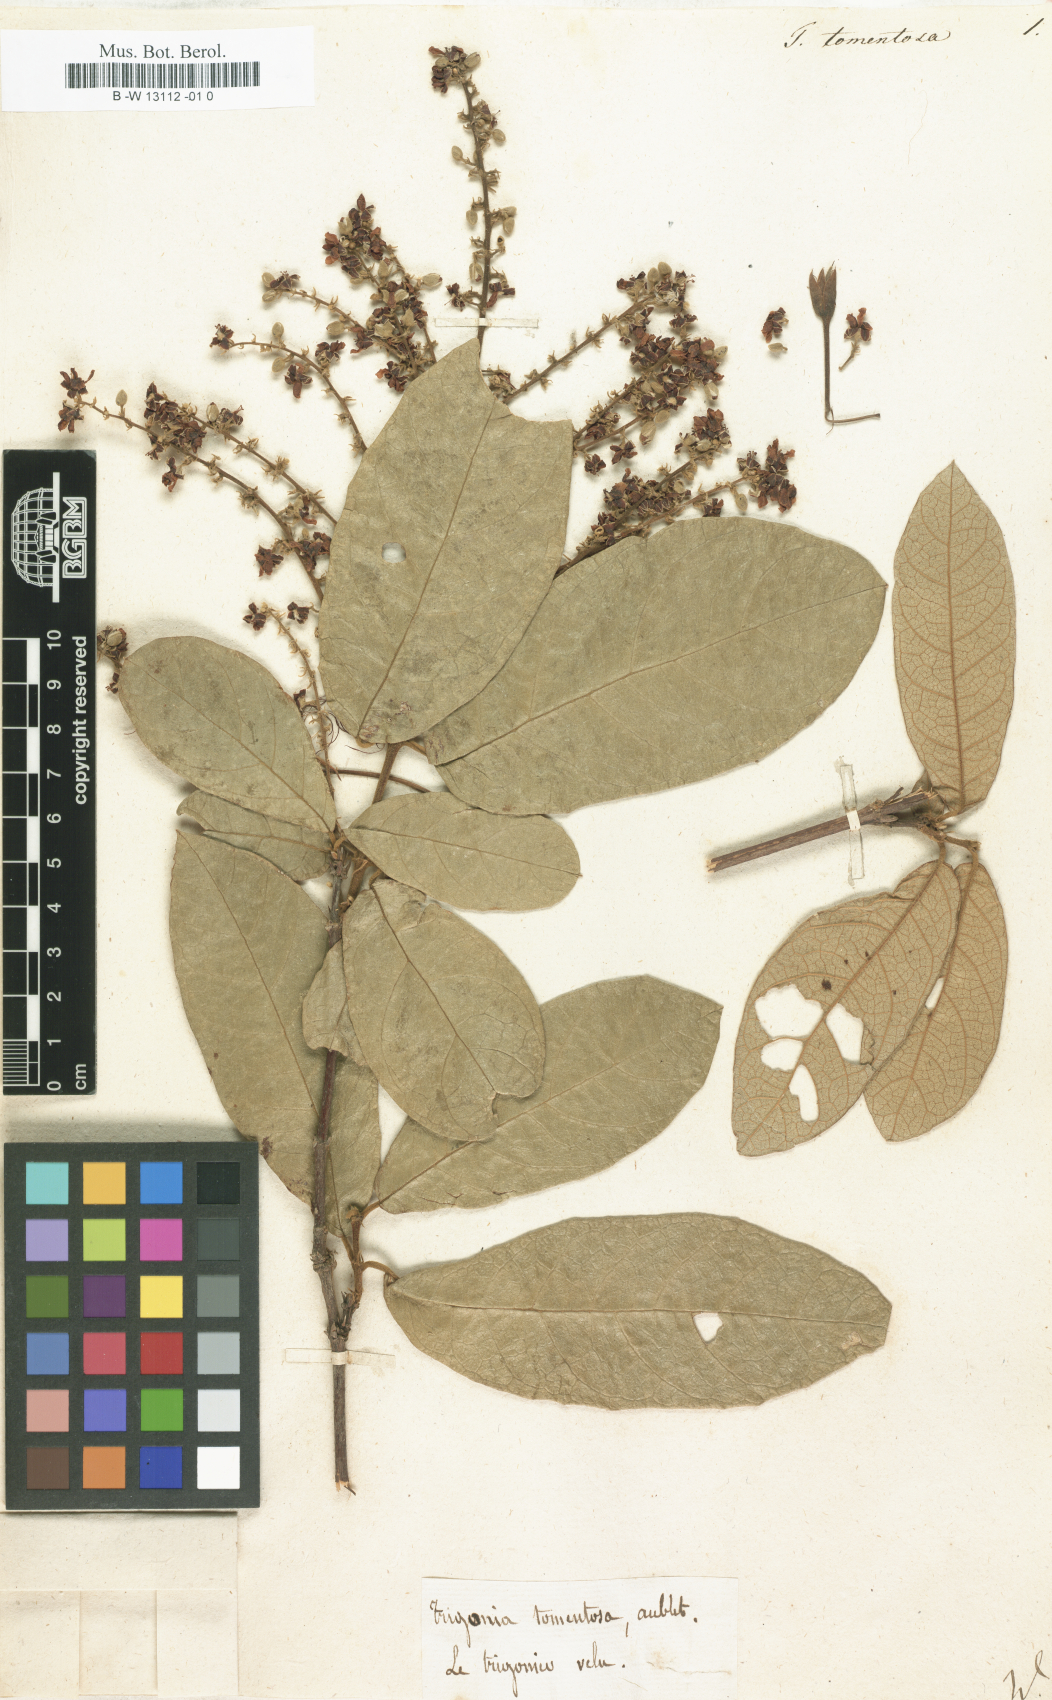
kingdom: Plantae
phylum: Tracheophyta
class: Magnoliopsida
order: Sapindales
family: Sapindaceae
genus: Cupania
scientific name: Cupania americana
